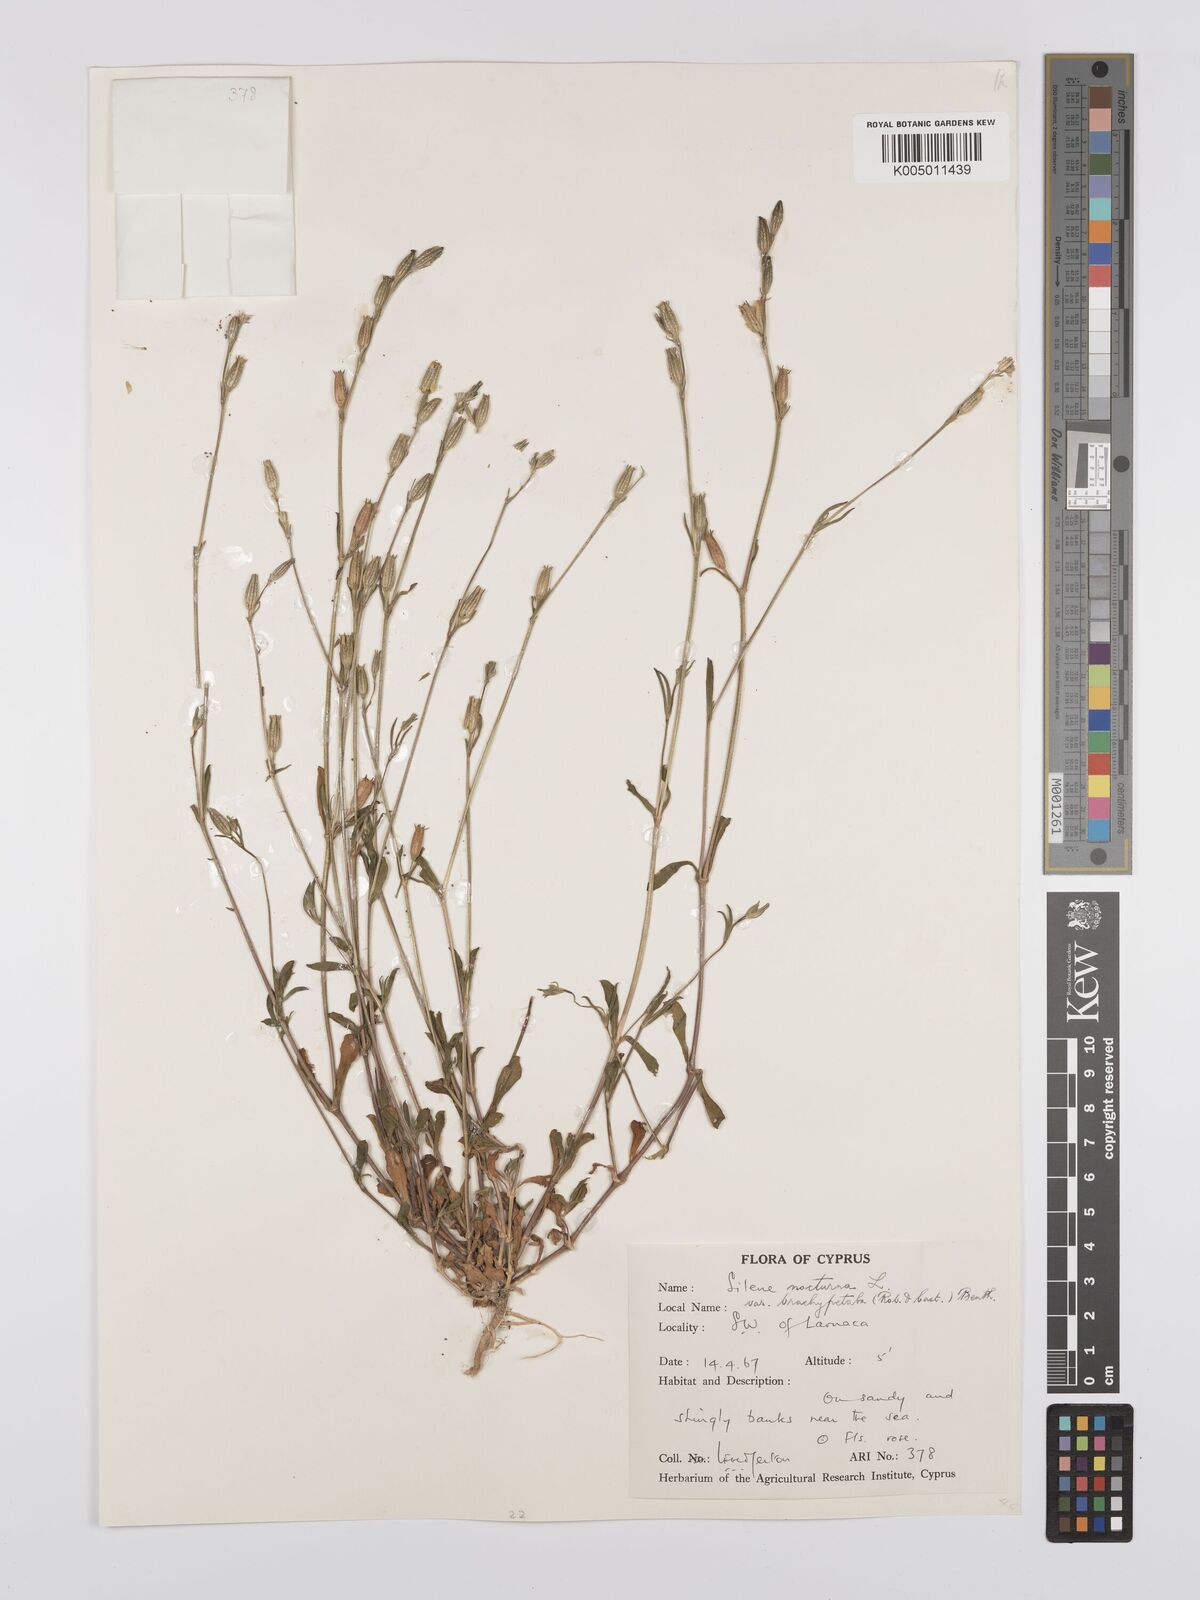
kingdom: Plantae
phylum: Tracheophyta
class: Magnoliopsida
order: Caryophyllales
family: Caryophyllaceae
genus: Silene
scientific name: Silene nocturna
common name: Mediterranean catchfly
